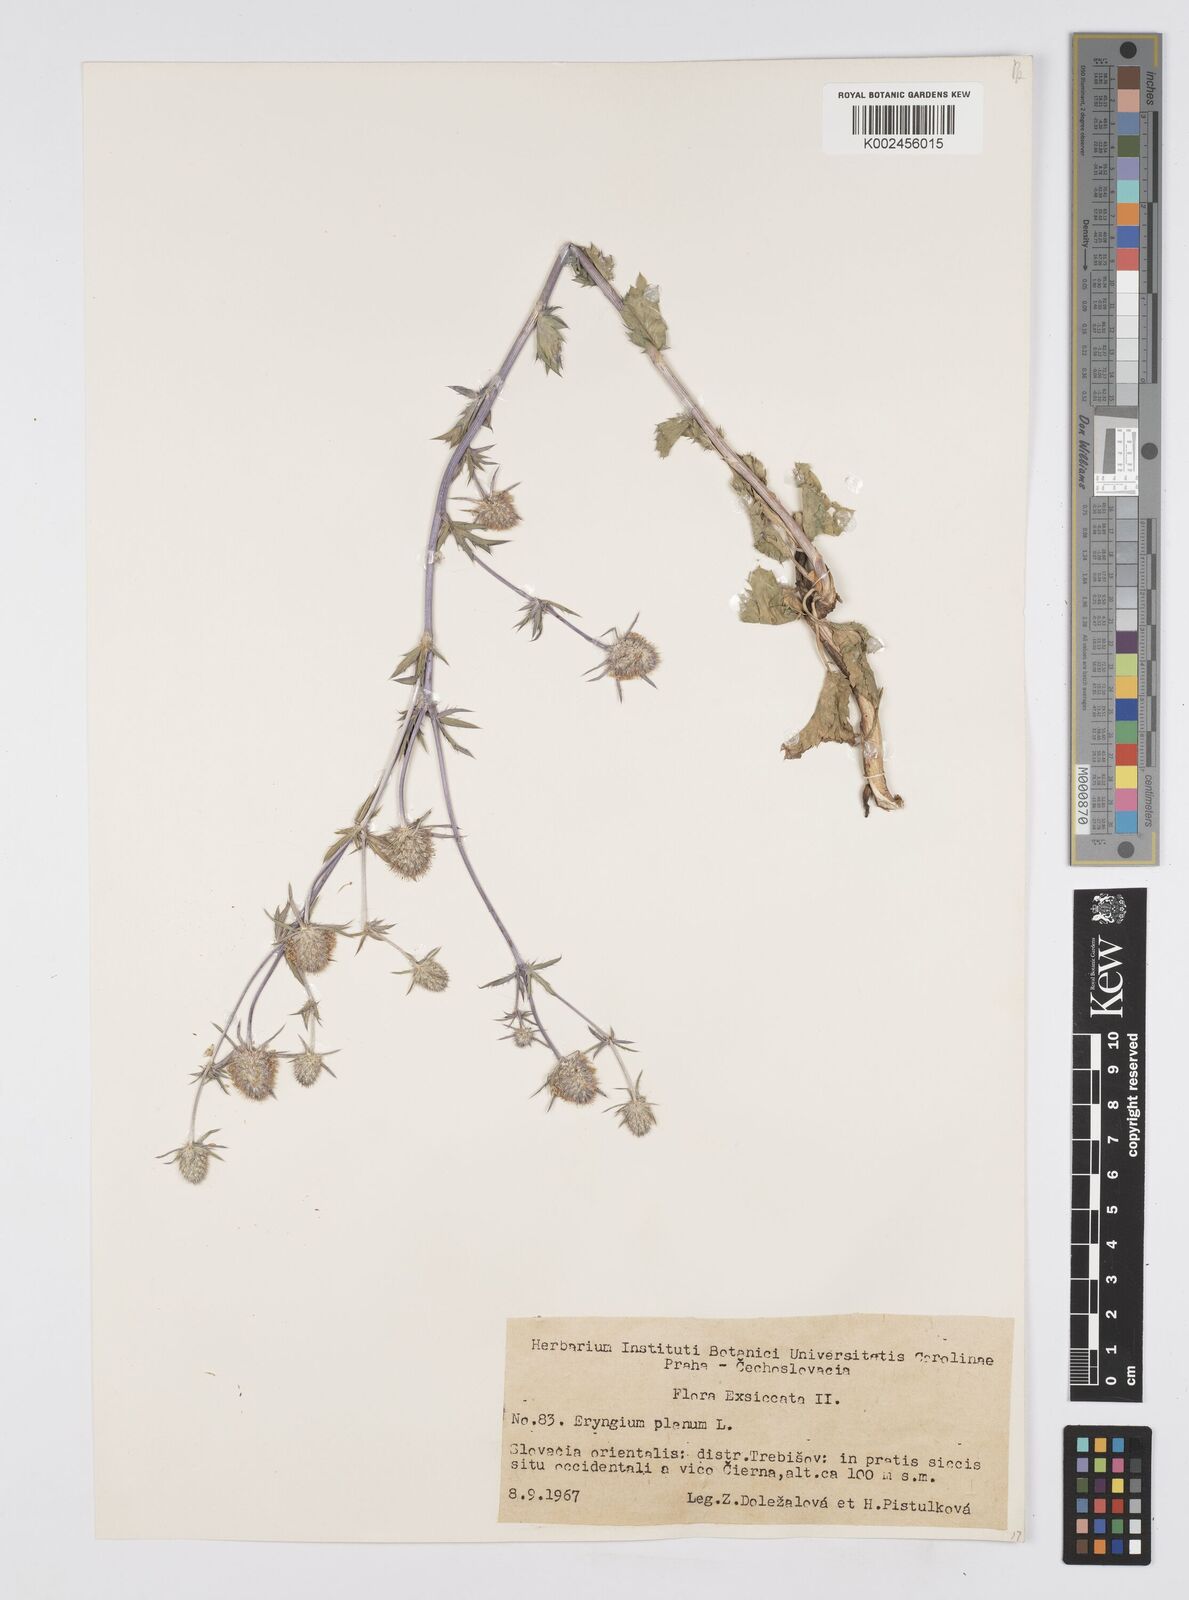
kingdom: Plantae
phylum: Tracheophyta
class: Magnoliopsida
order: Apiales
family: Apiaceae
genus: Eryngium
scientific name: Eryngium planum
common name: Blue eryngo
